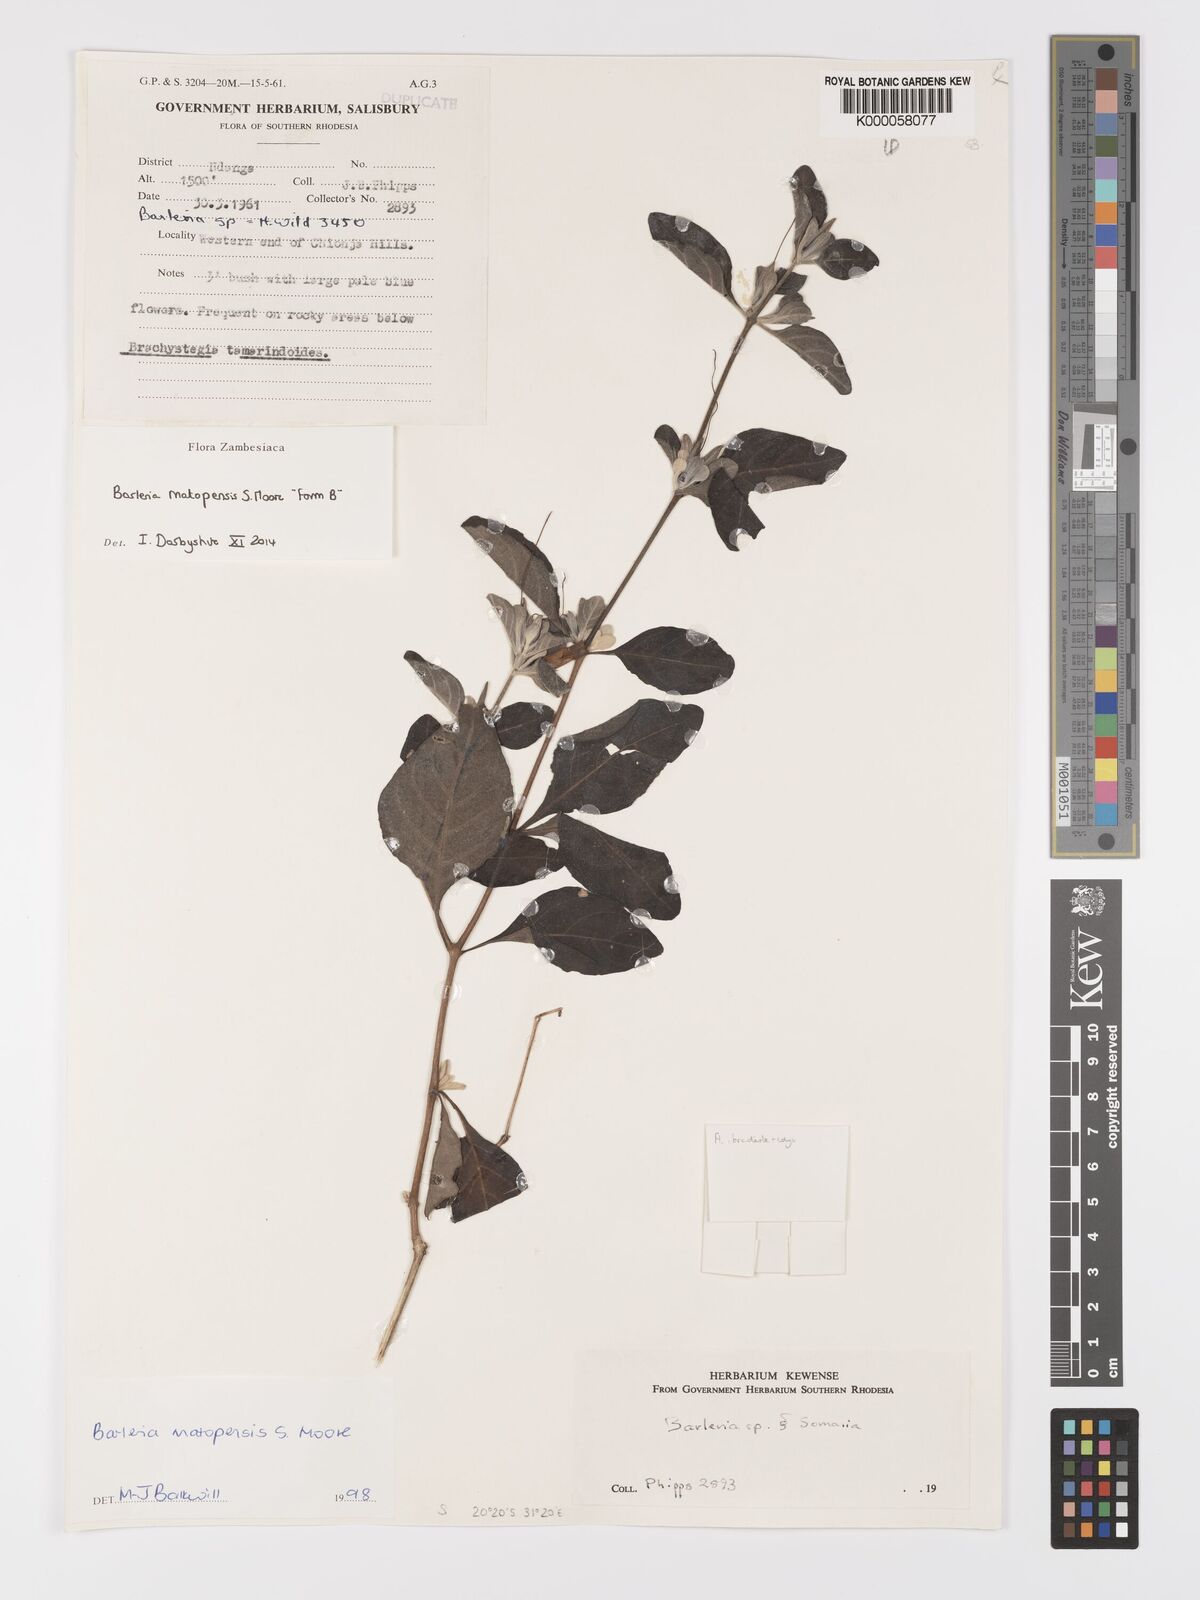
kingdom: Plantae
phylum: Tracheophyta
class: Magnoliopsida
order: Lamiales
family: Acanthaceae
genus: Barleria
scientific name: Barleria matopensis
